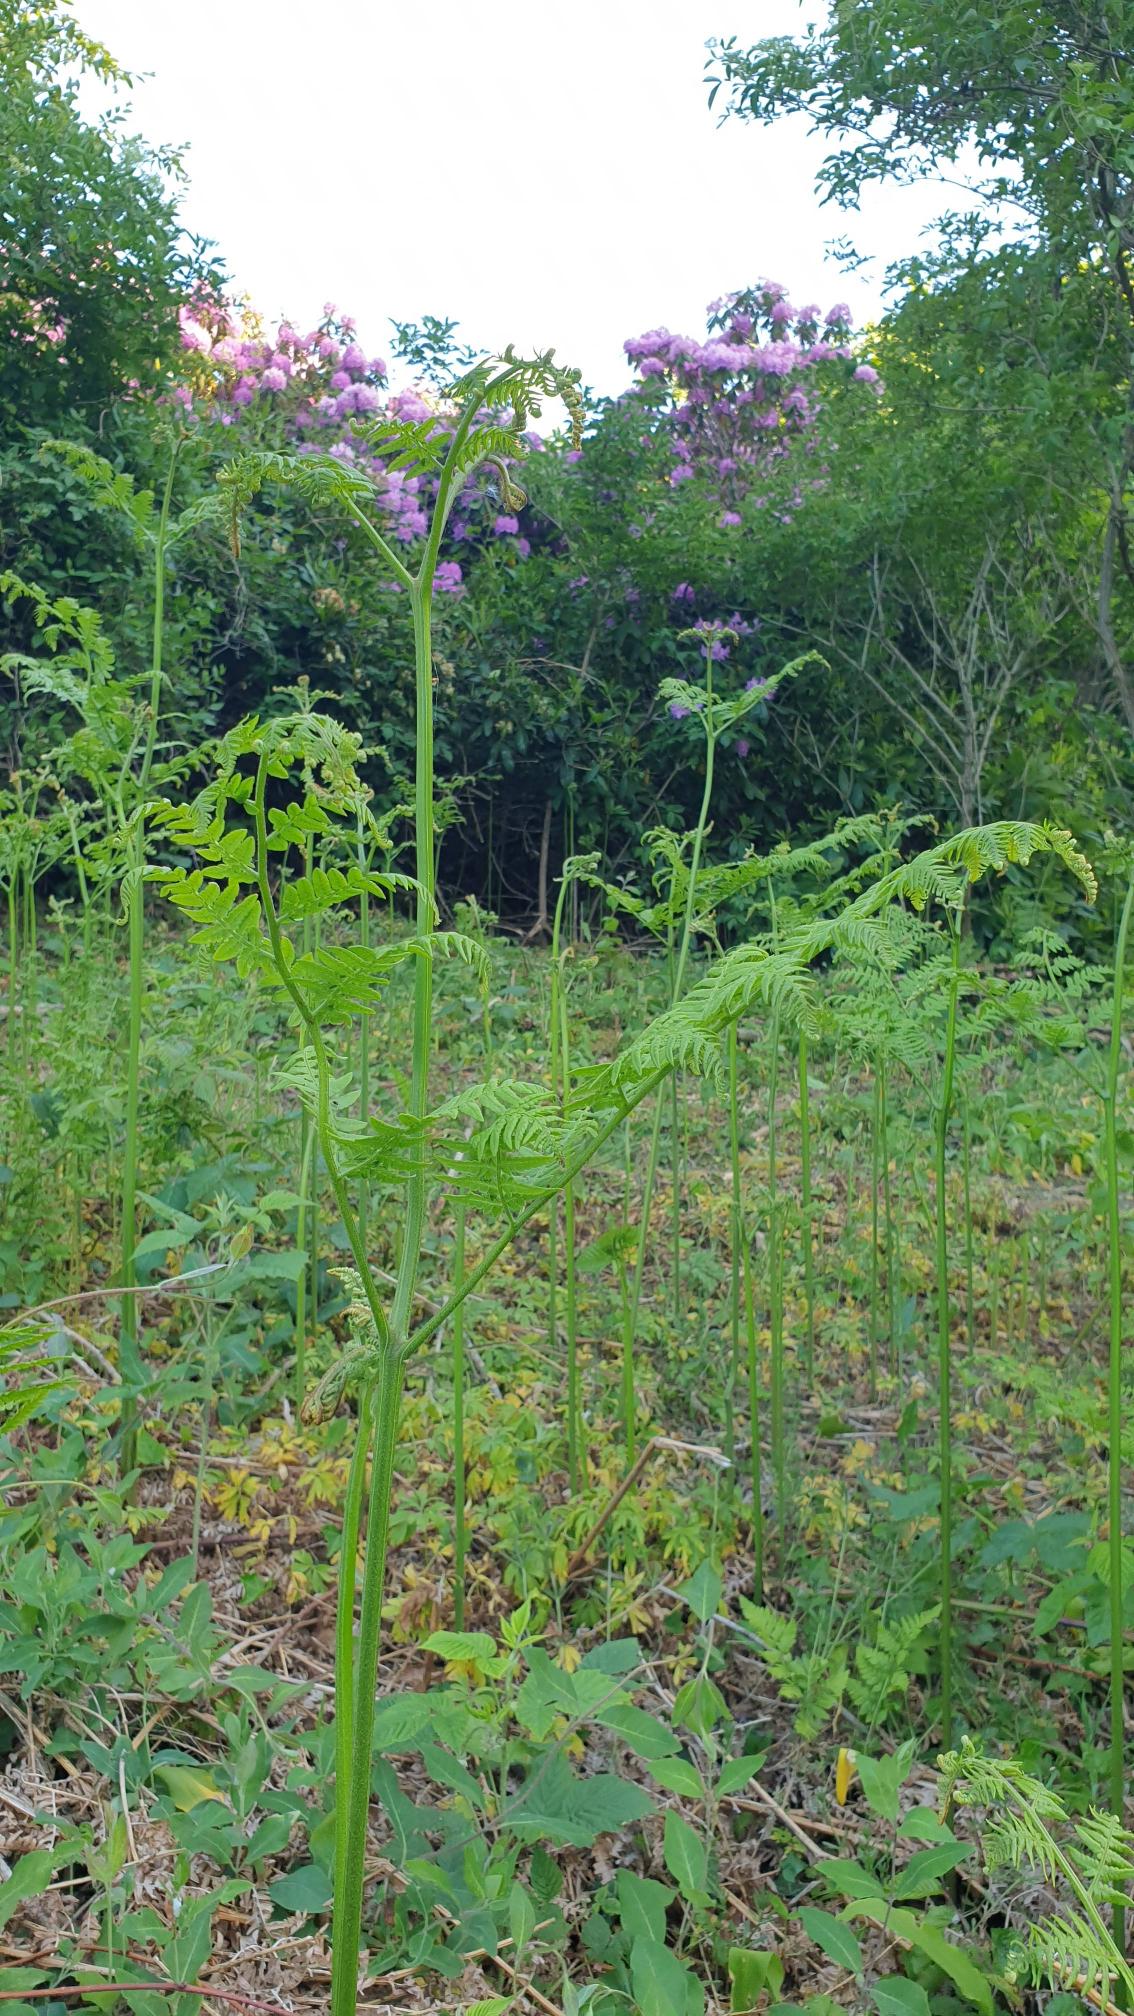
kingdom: Plantae
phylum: Tracheophyta
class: Polypodiopsida
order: Polypodiales
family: Dennstaedtiaceae
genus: Pteridium
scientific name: Pteridium aquilinum
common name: Ørnebregne
